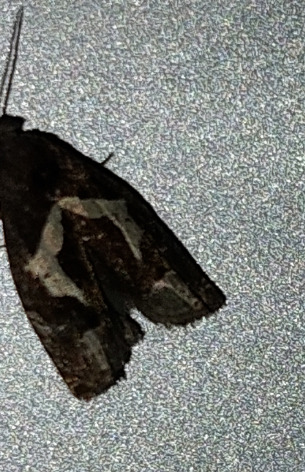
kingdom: Animalia
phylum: Arthropoda
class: Insecta
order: Lepidoptera
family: Tortricidae
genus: Epiblema
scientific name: Epiblema foenella
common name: Gråbynkegallevikler
